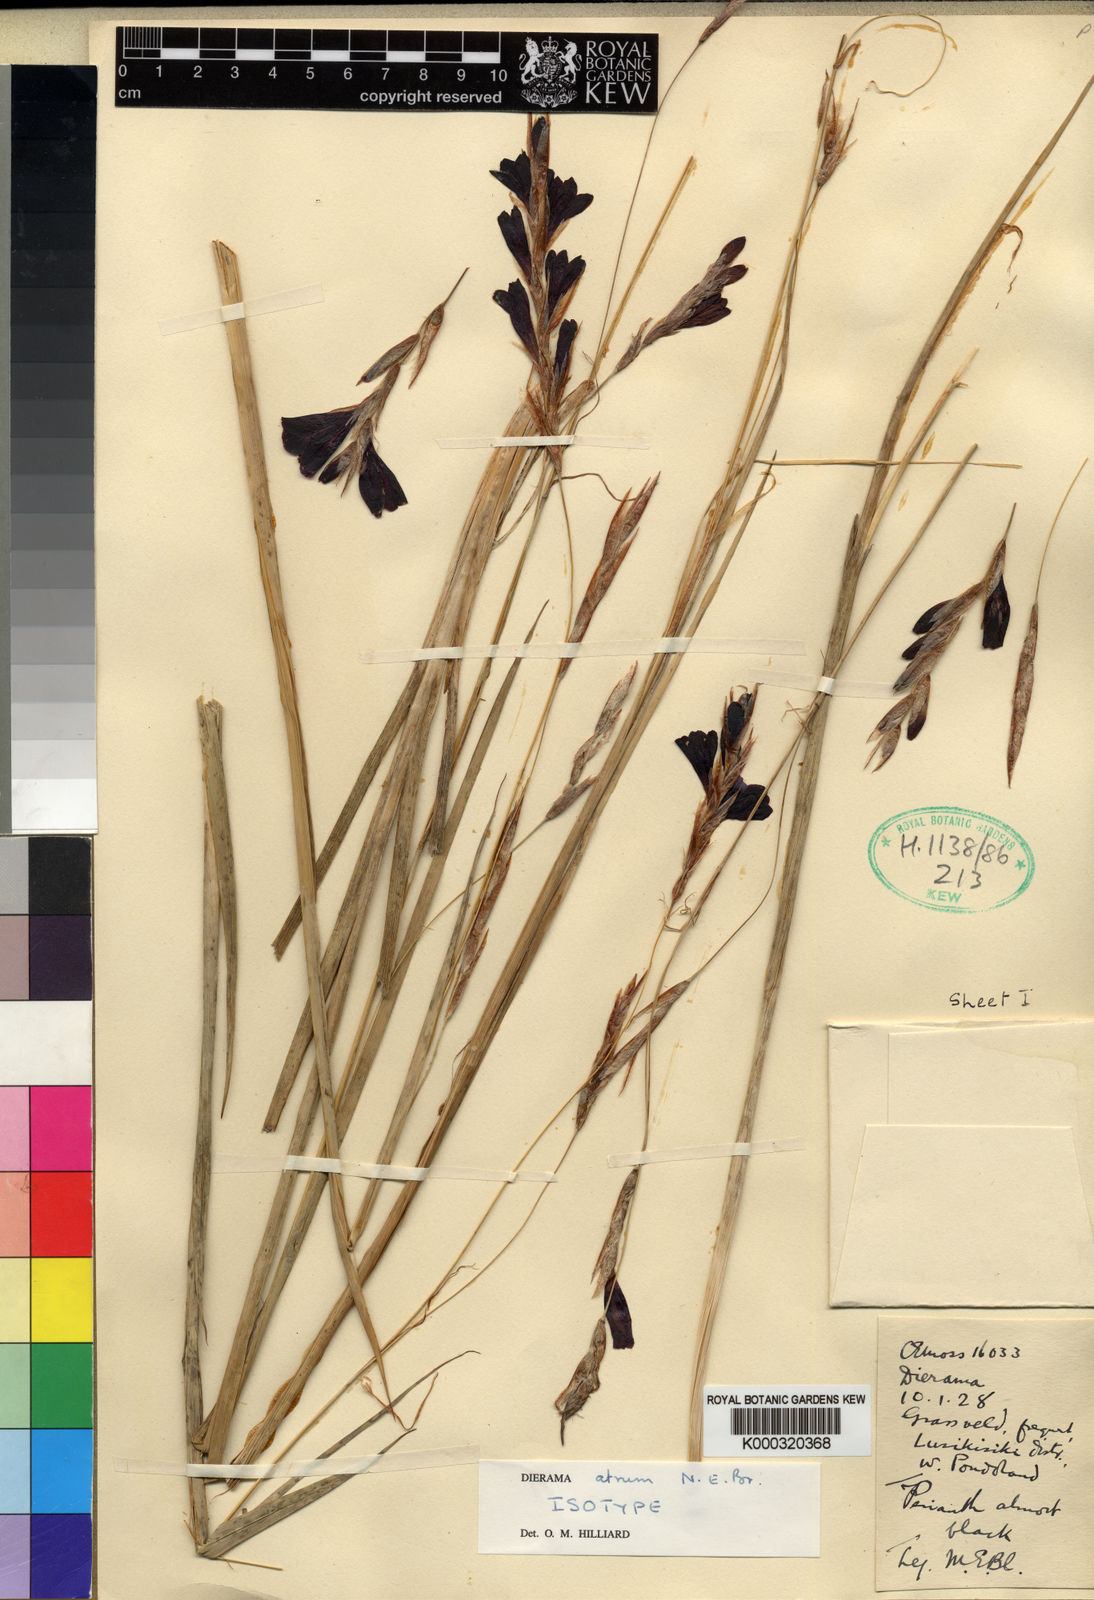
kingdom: Plantae
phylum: Tracheophyta
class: Liliopsida
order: Asparagales
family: Iridaceae
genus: Dierama
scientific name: Dierama atrum
